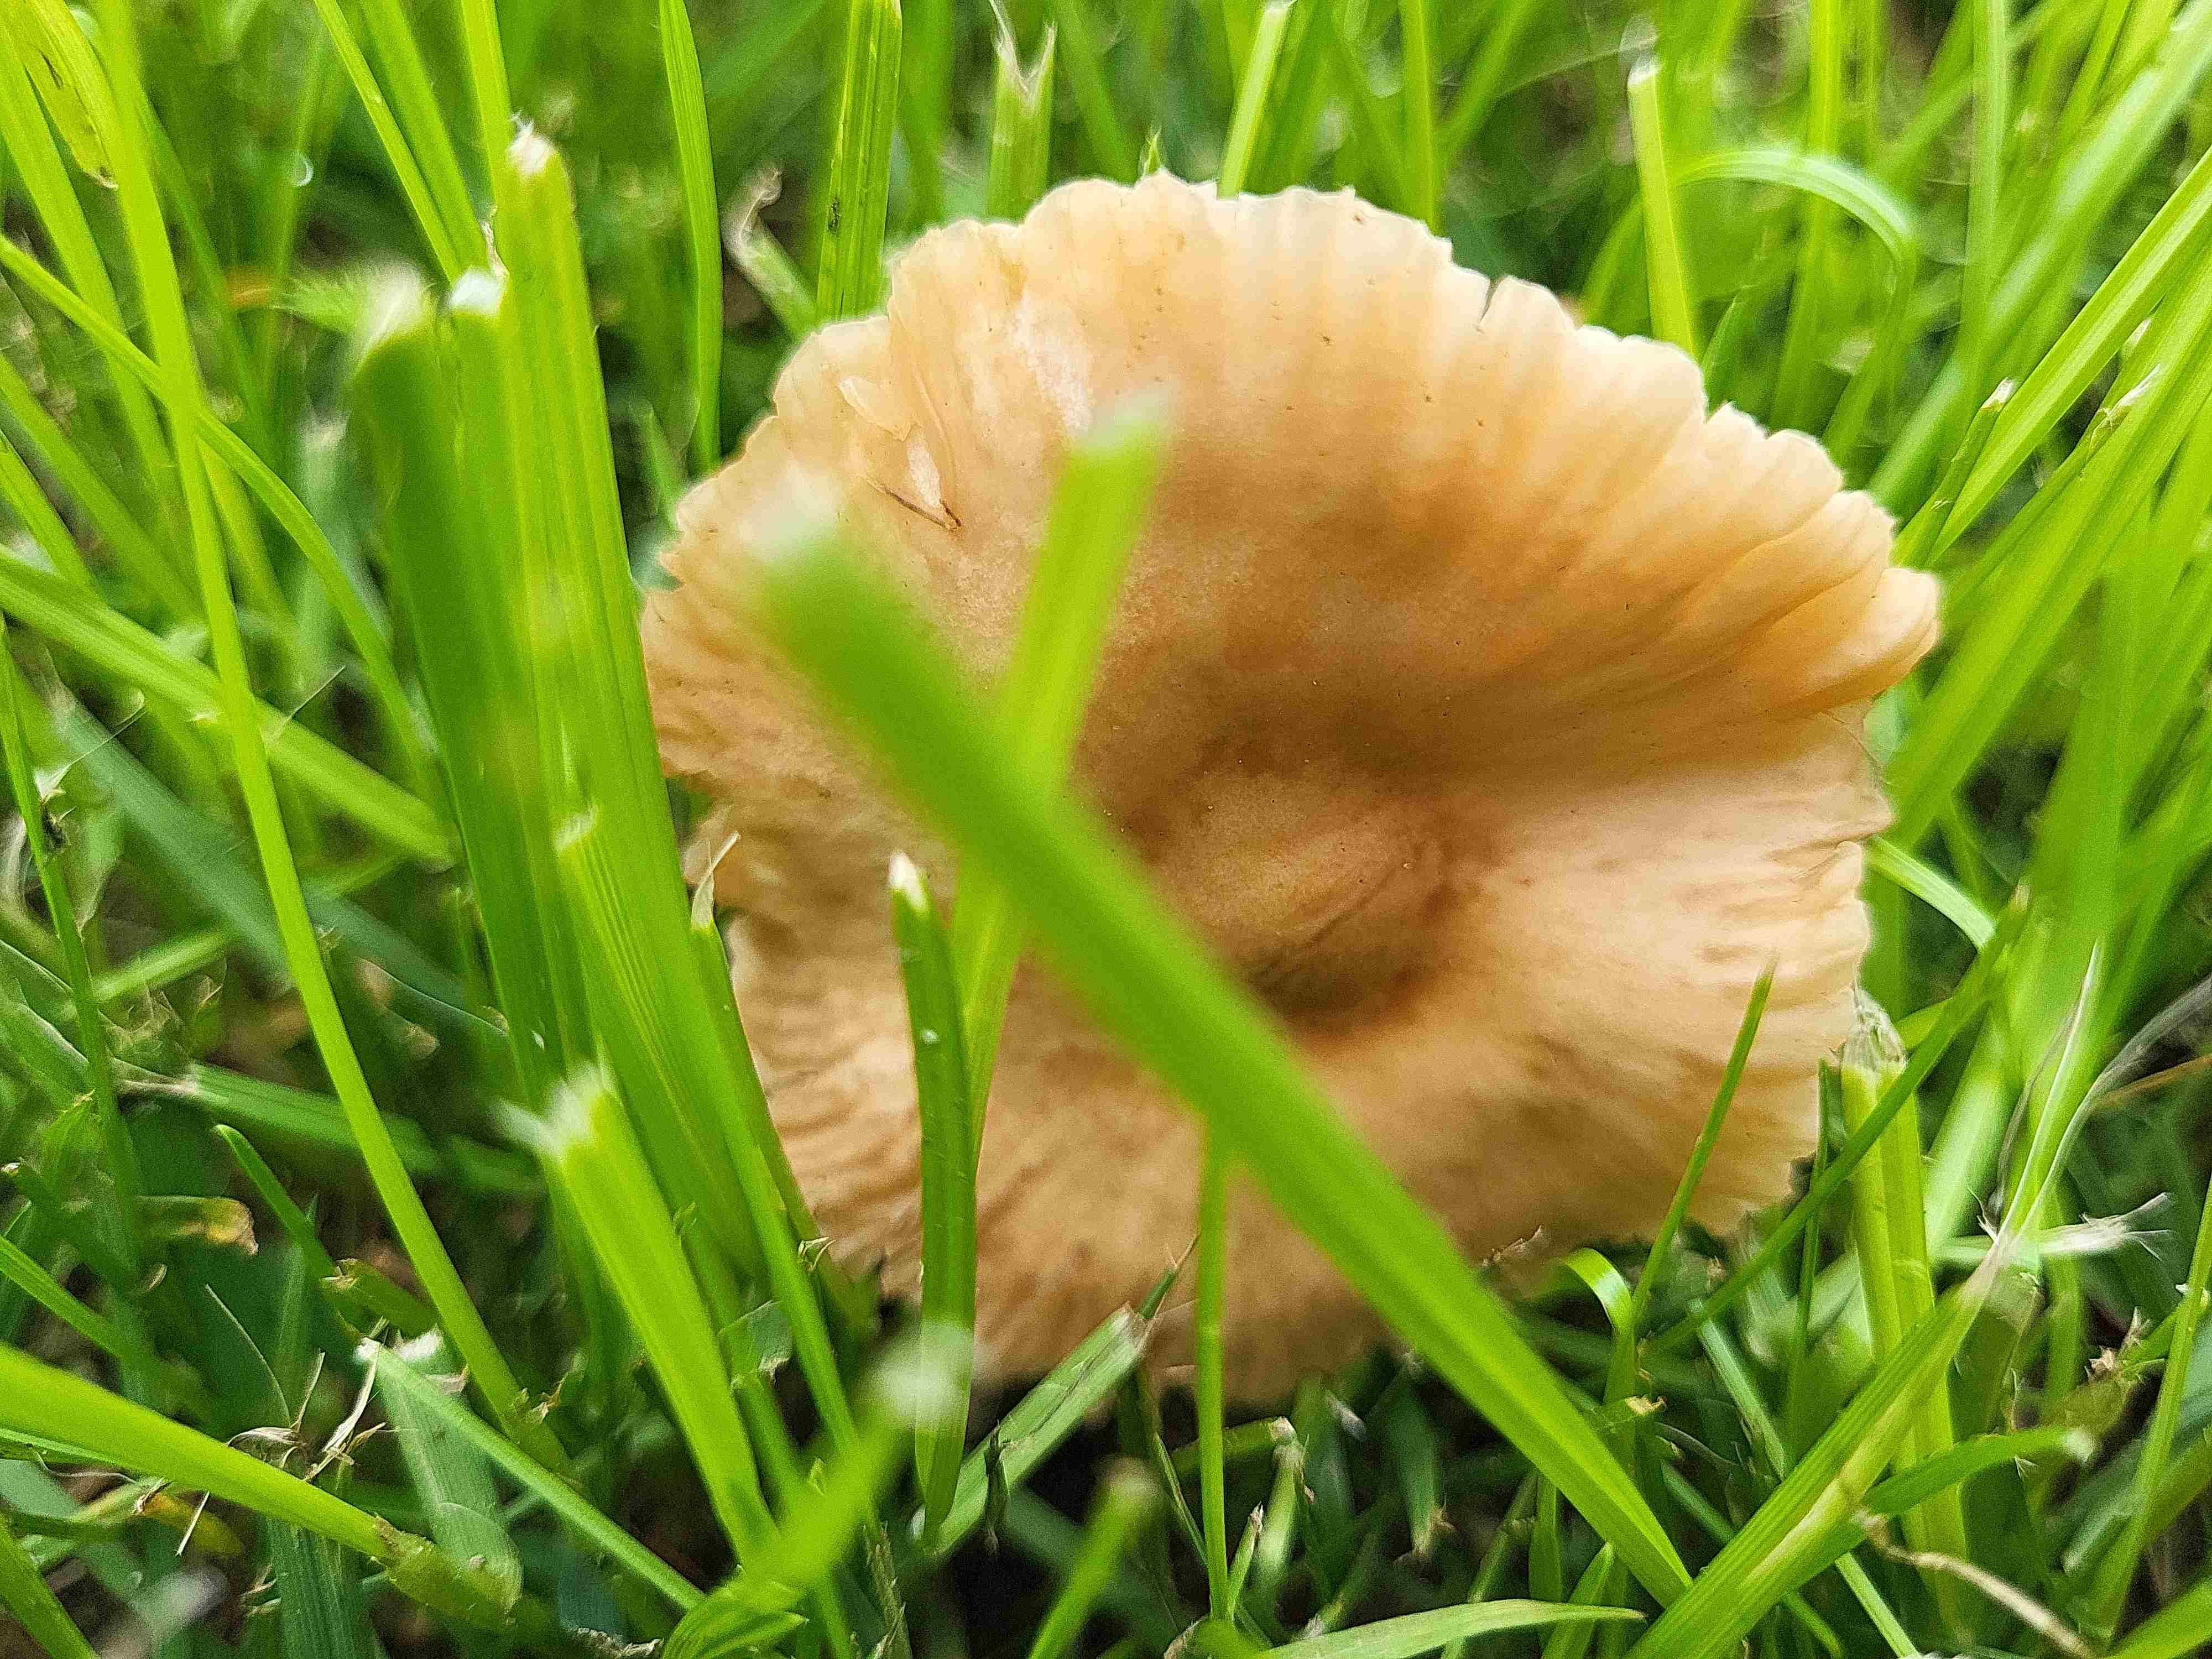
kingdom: Fungi
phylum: Basidiomycota
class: Agaricomycetes
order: Agaricales
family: Marasmiaceae
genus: Marasmius
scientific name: Marasmius oreades
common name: elledans-bruskhat
